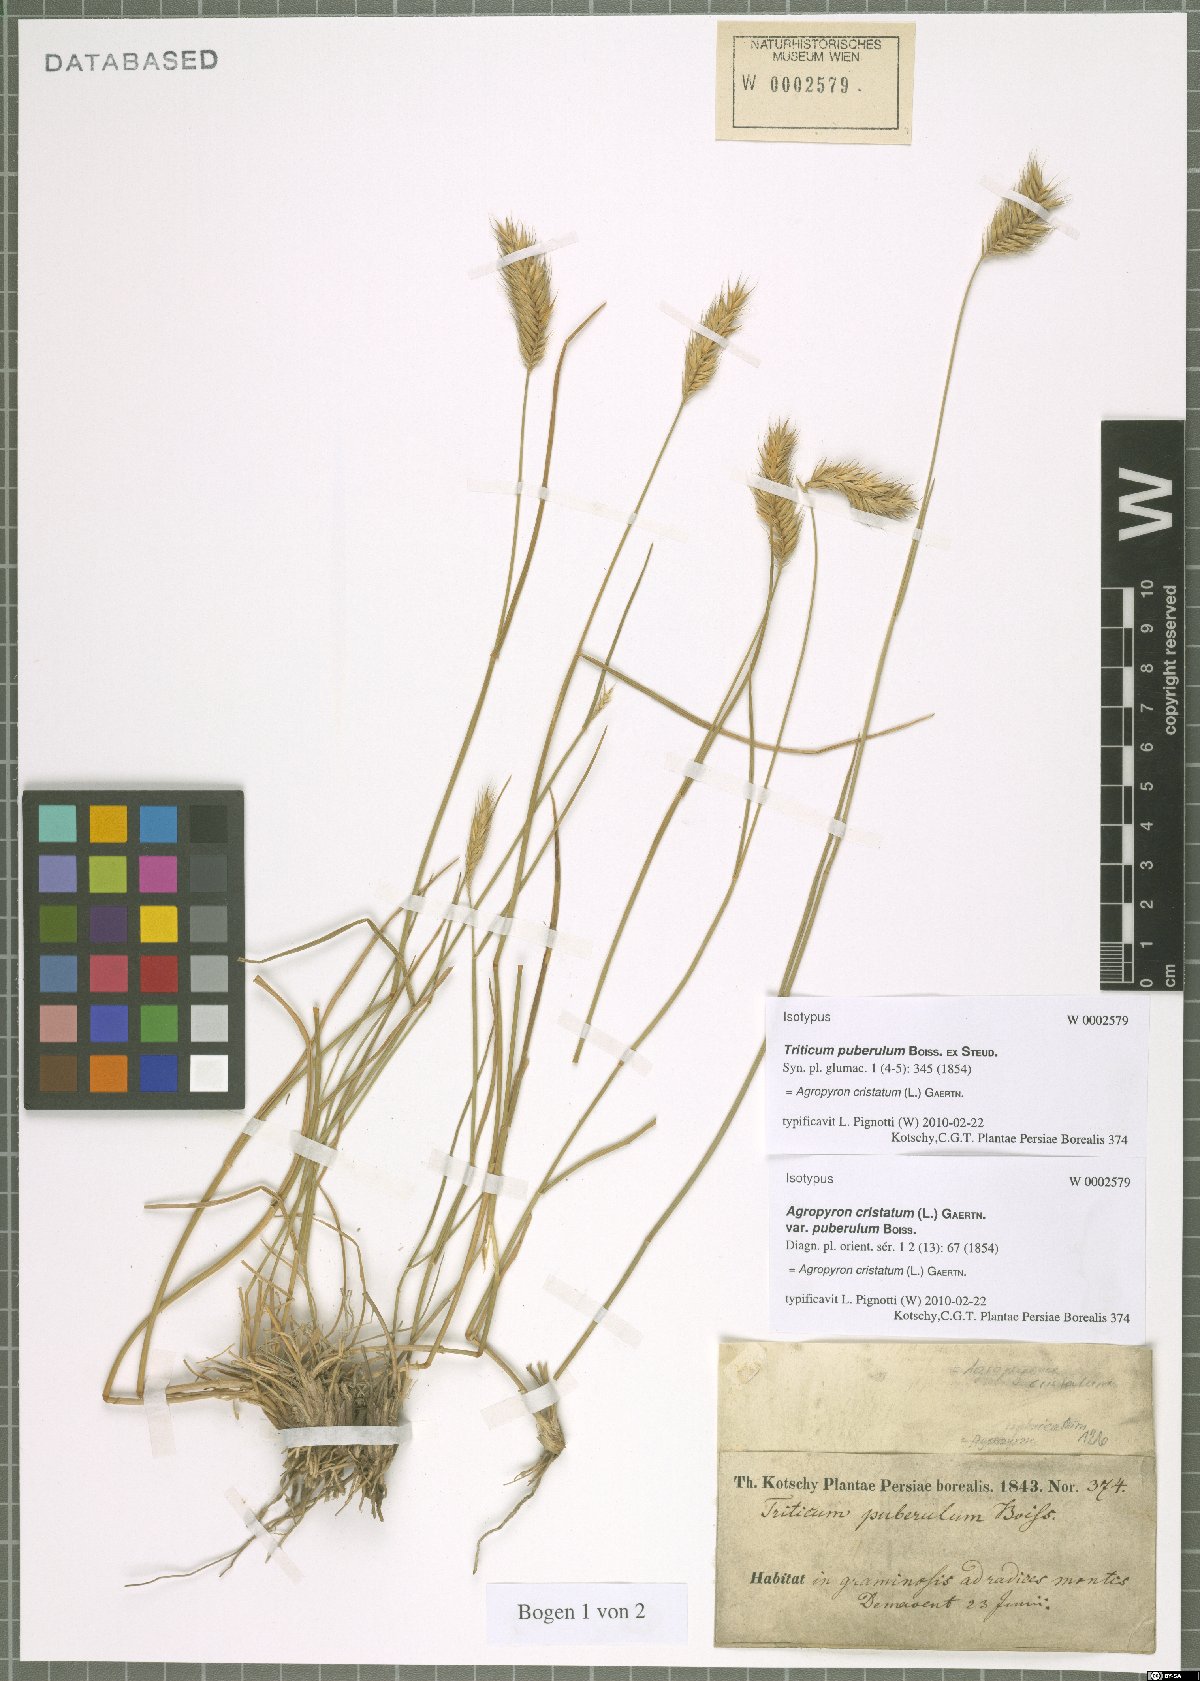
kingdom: Plantae
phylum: Tracheophyta
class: Liliopsida
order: Poales
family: Poaceae
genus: Agropyron
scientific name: Agropyron cristatum
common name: Crested wheatgrass
